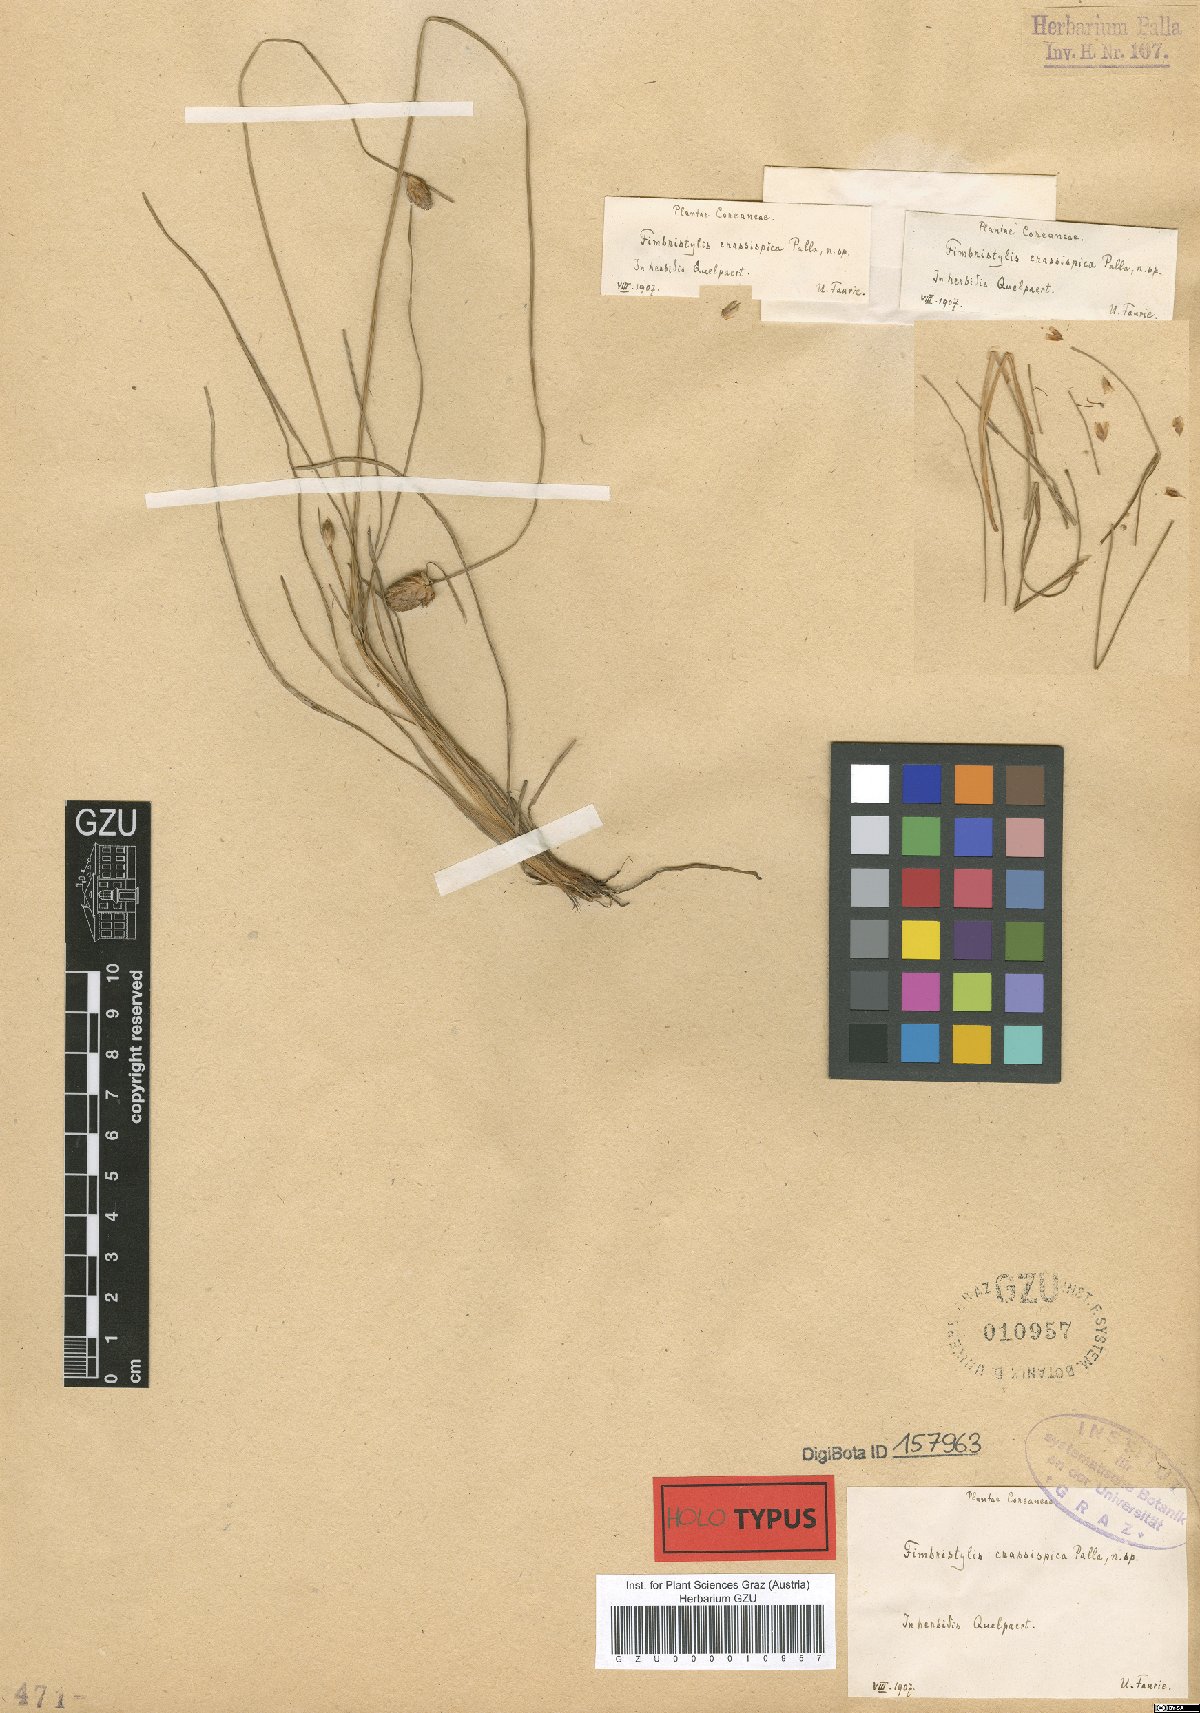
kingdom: Plantae
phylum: Tracheophyta
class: Liliopsida
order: Poales
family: Cyperaceae
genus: Fimbristylis
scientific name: Fimbristylis longispica
